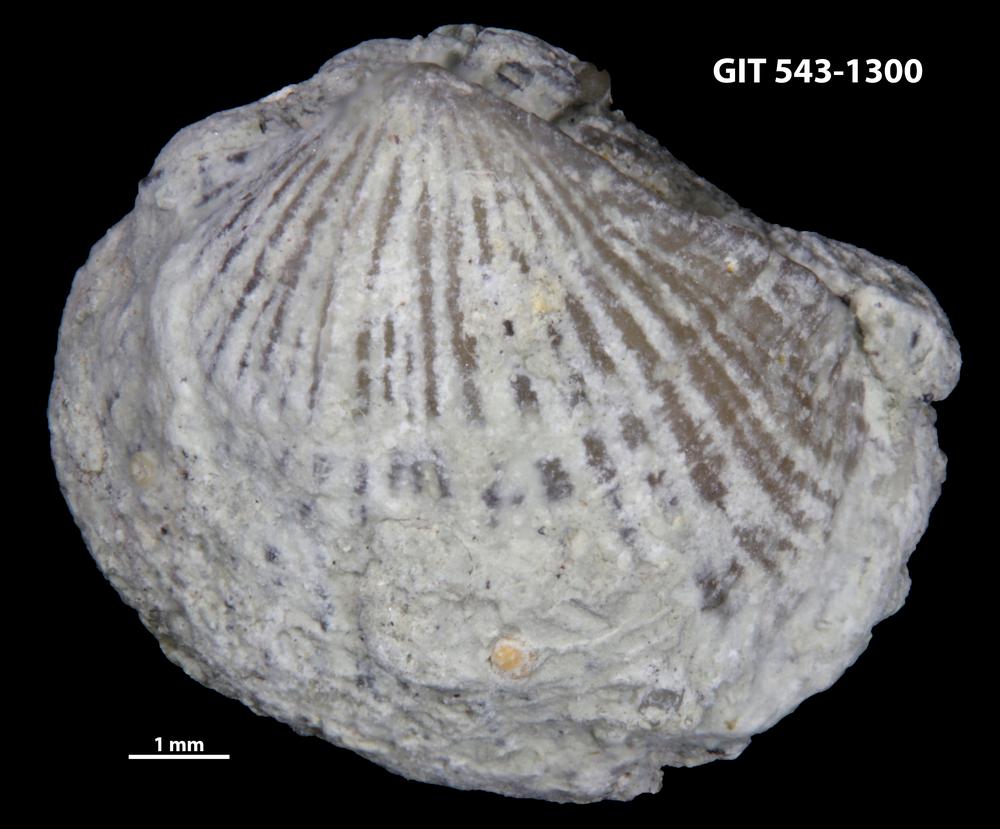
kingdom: Animalia
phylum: Brachiopoda
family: Kullervoidae
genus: Kullervo
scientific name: Kullervo
